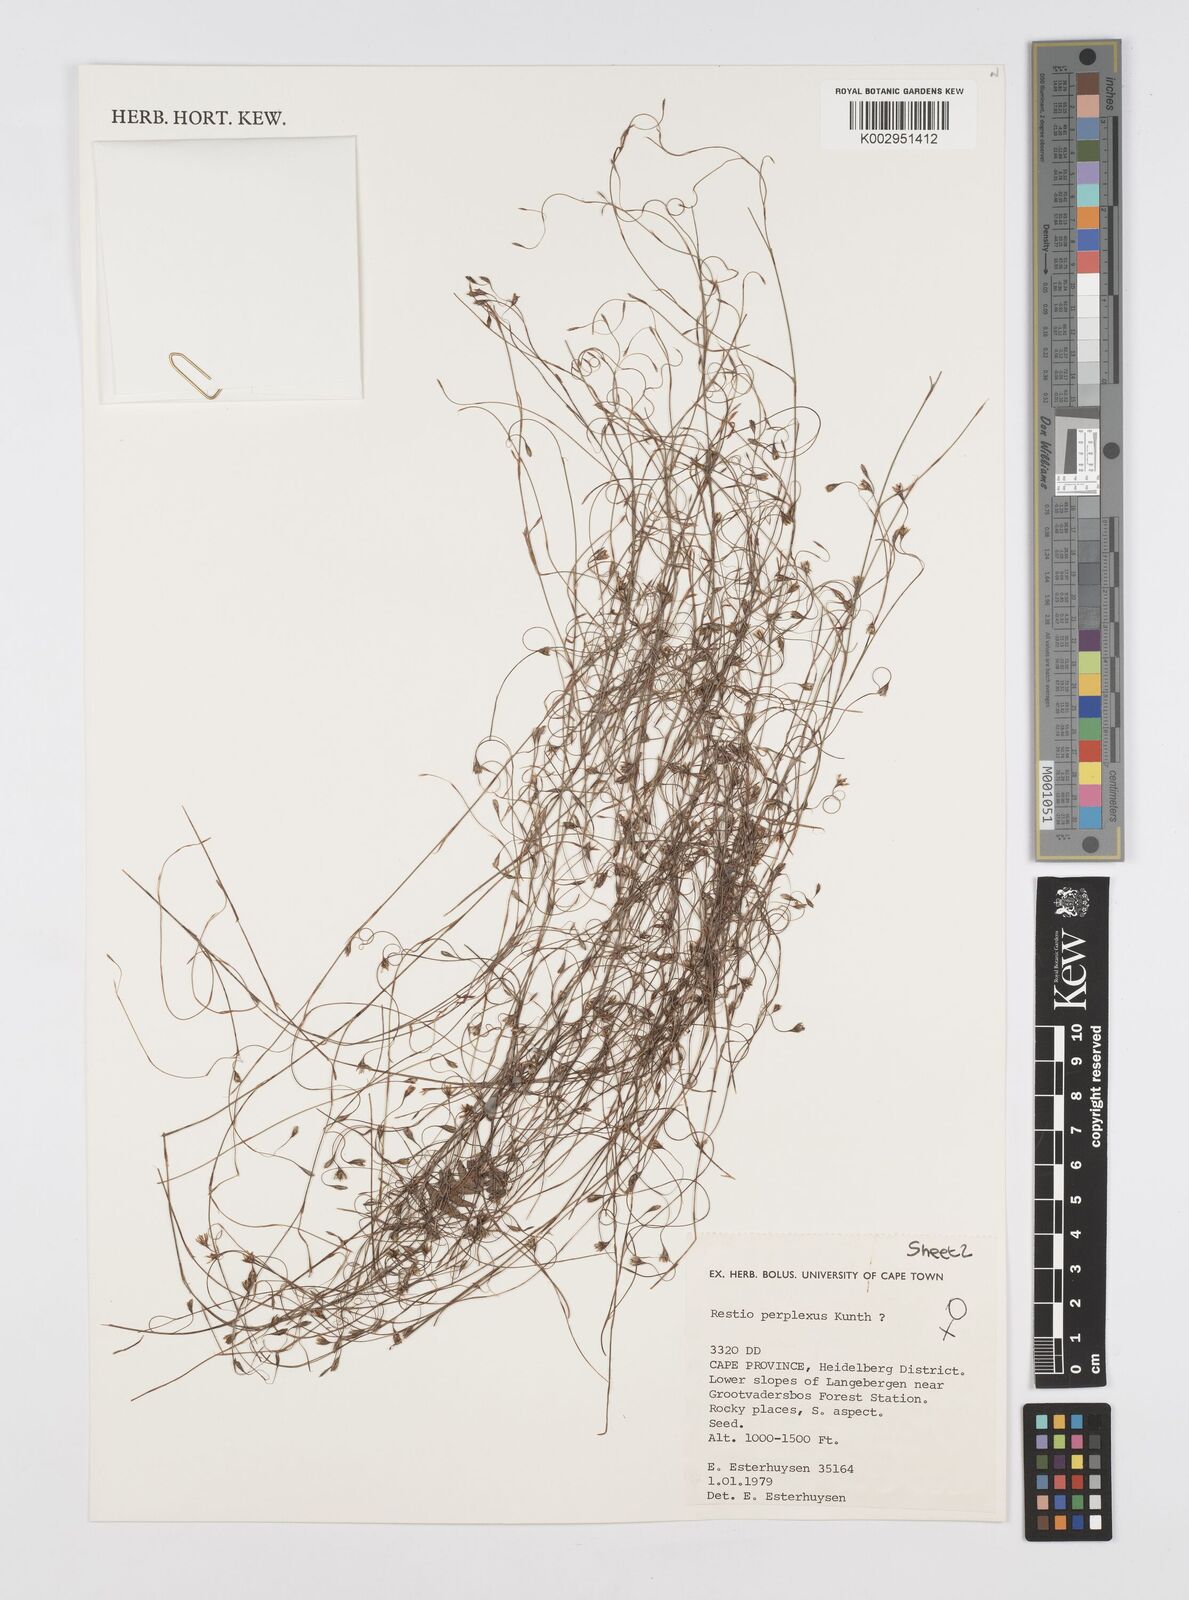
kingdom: Plantae
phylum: Tracheophyta
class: Liliopsida
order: Poales
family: Restionaceae
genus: Restio
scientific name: Restio perplexus
